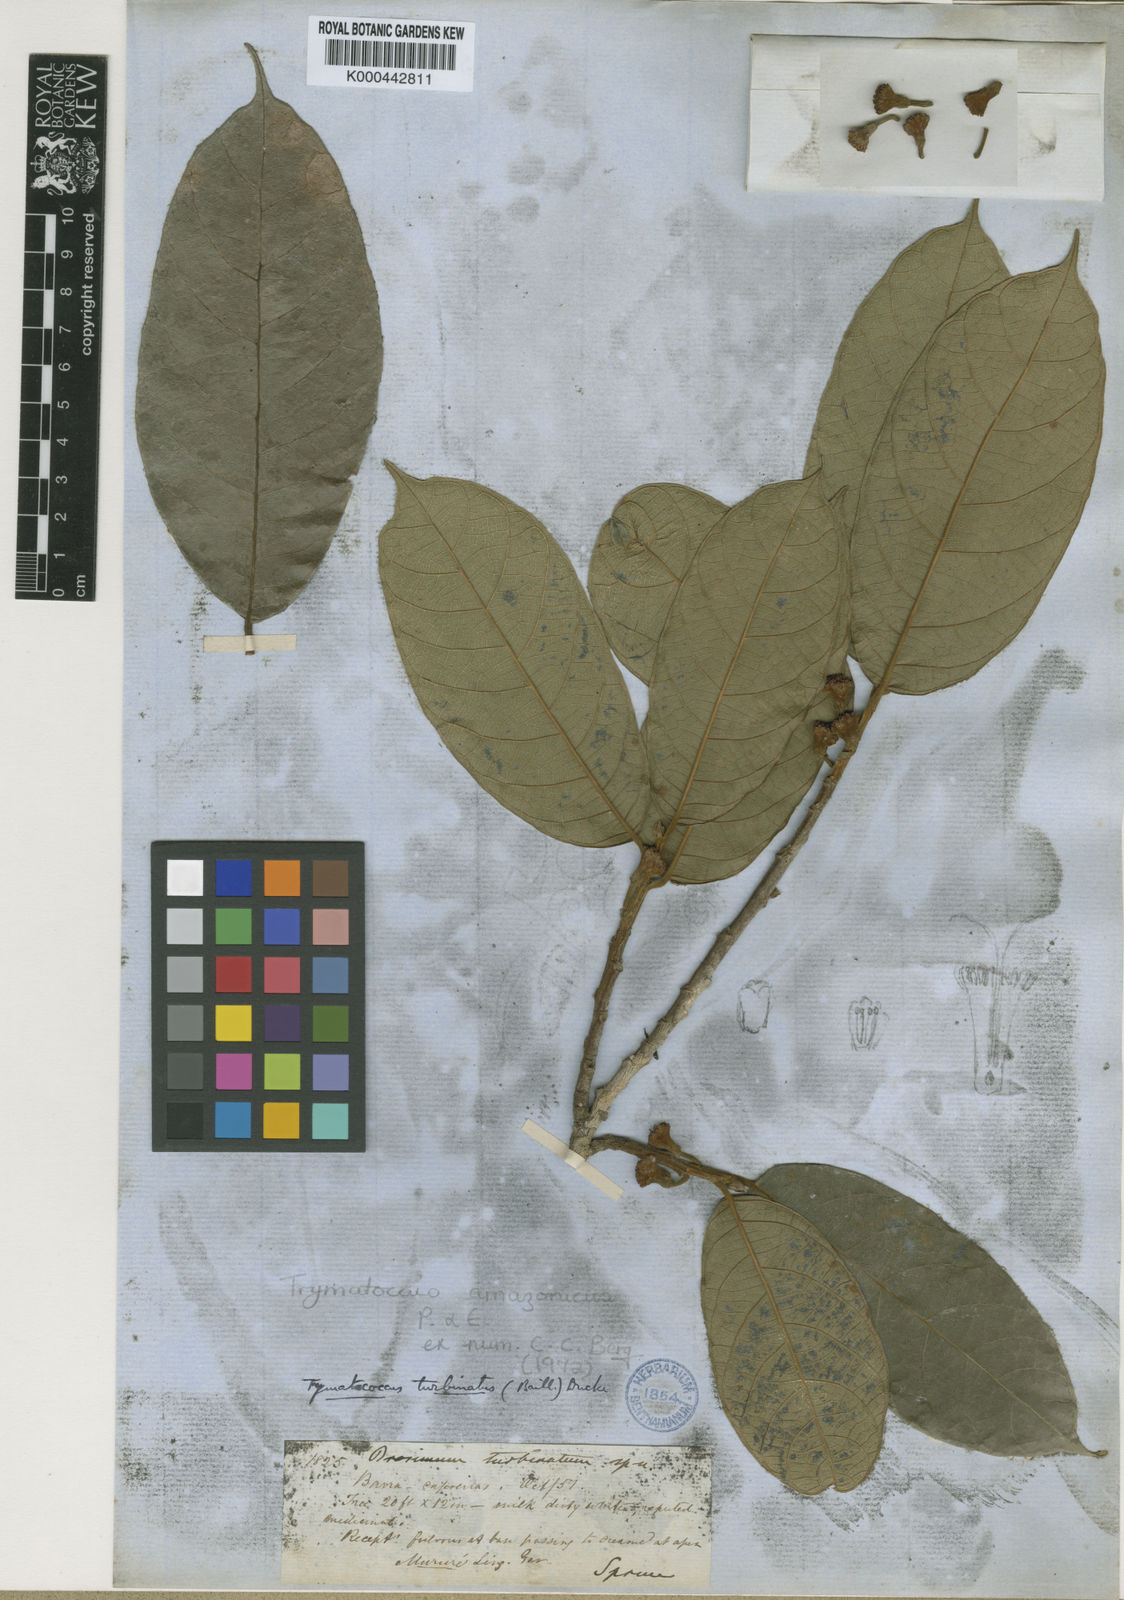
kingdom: Plantae
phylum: Tracheophyta
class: Magnoliopsida
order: Rosales
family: Moraceae
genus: Brosimum
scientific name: Brosimum amazonicum
